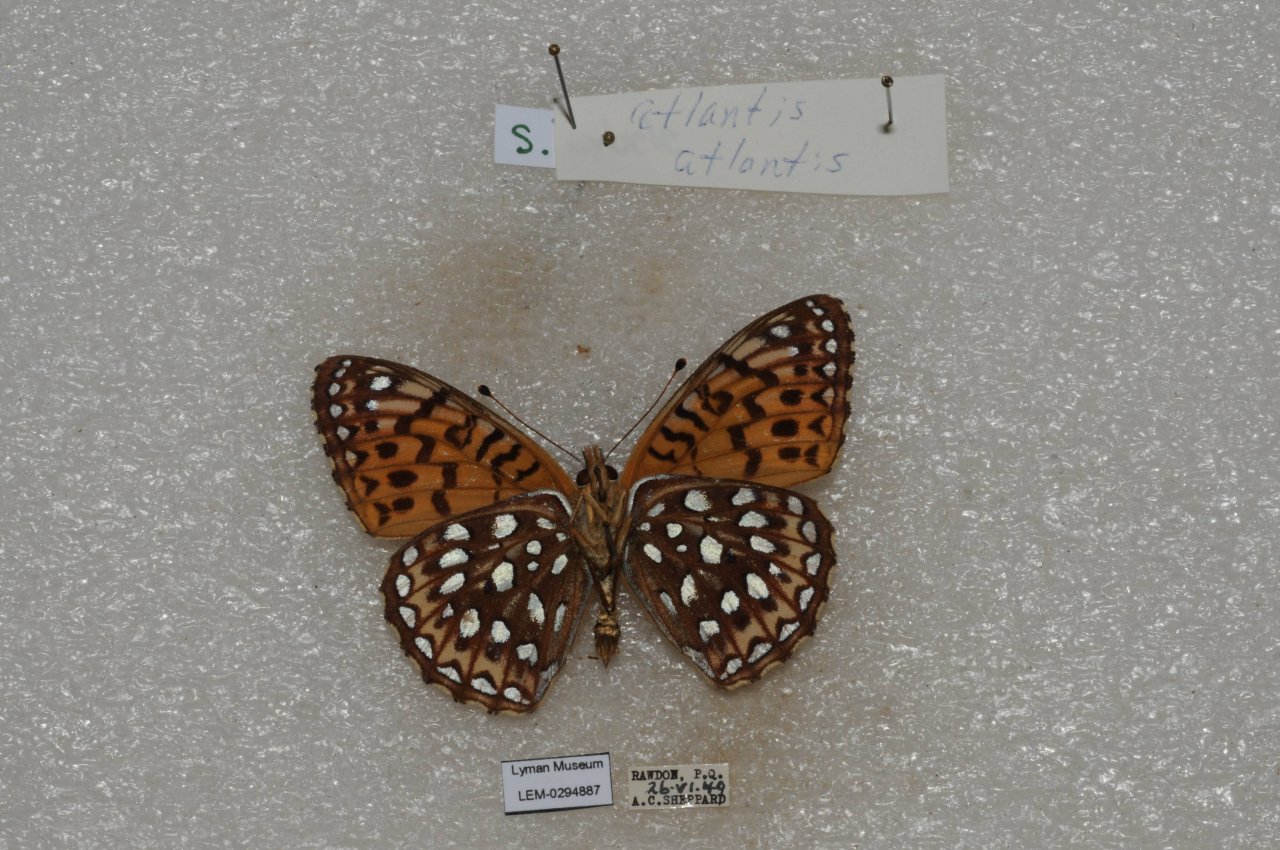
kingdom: Animalia
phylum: Arthropoda
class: Insecta
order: Lepidoptera
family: Nymphalidae
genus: Speyeria
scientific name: Speyeria atlantis
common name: Atlantis Fritillary
